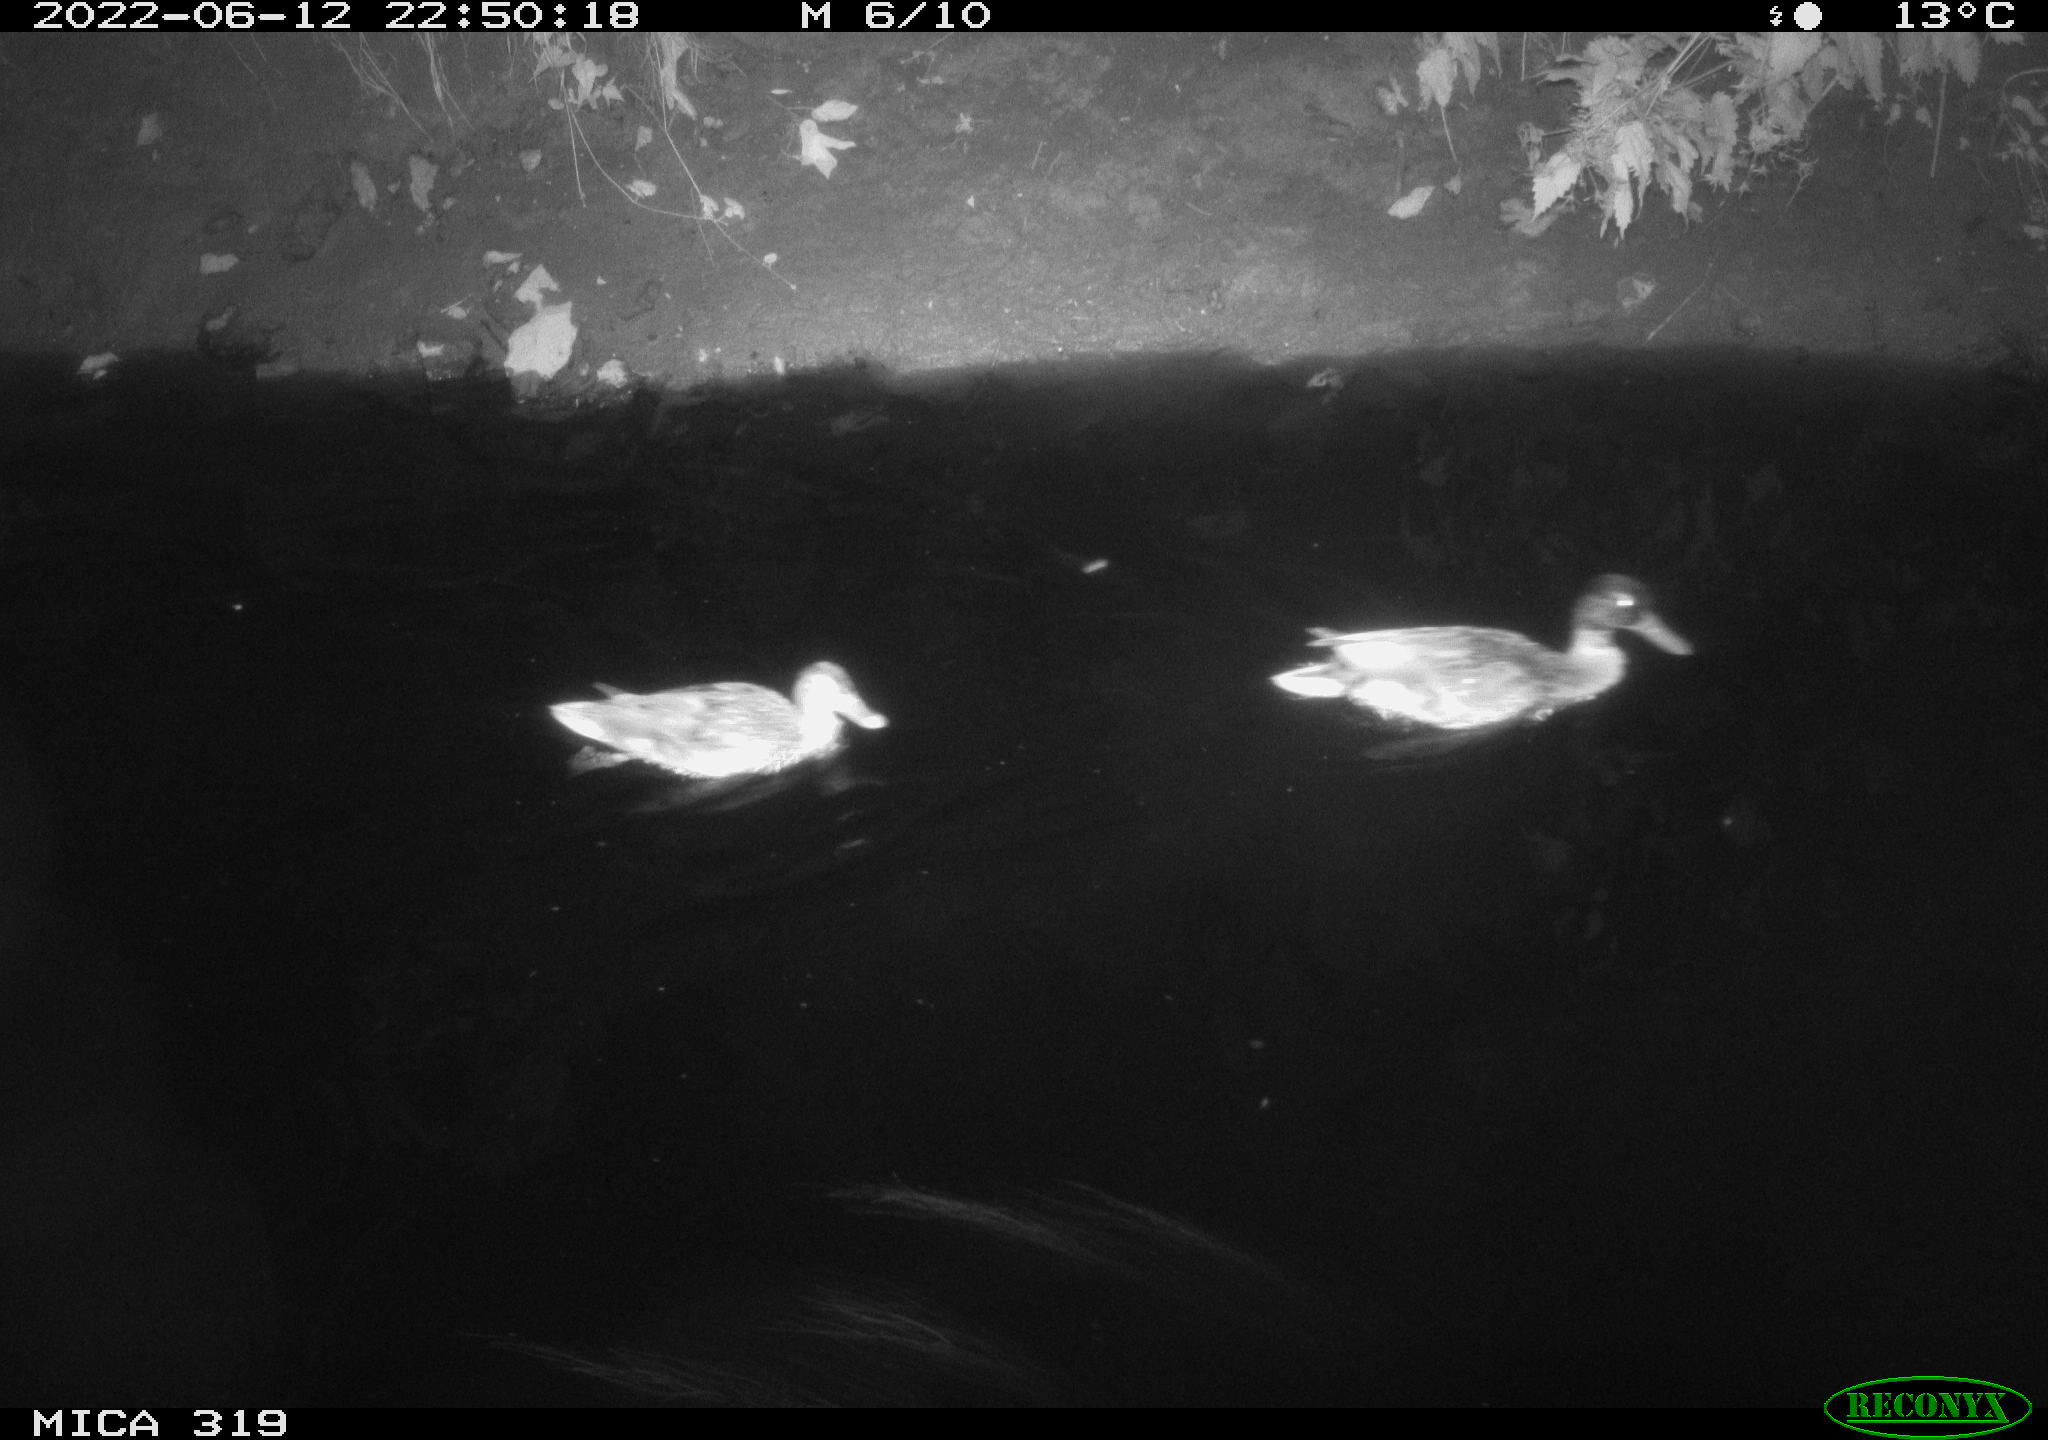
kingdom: Animalia
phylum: Chordata
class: Aves
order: Anseriformes
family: Anatidae
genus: Anas
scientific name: Anas
